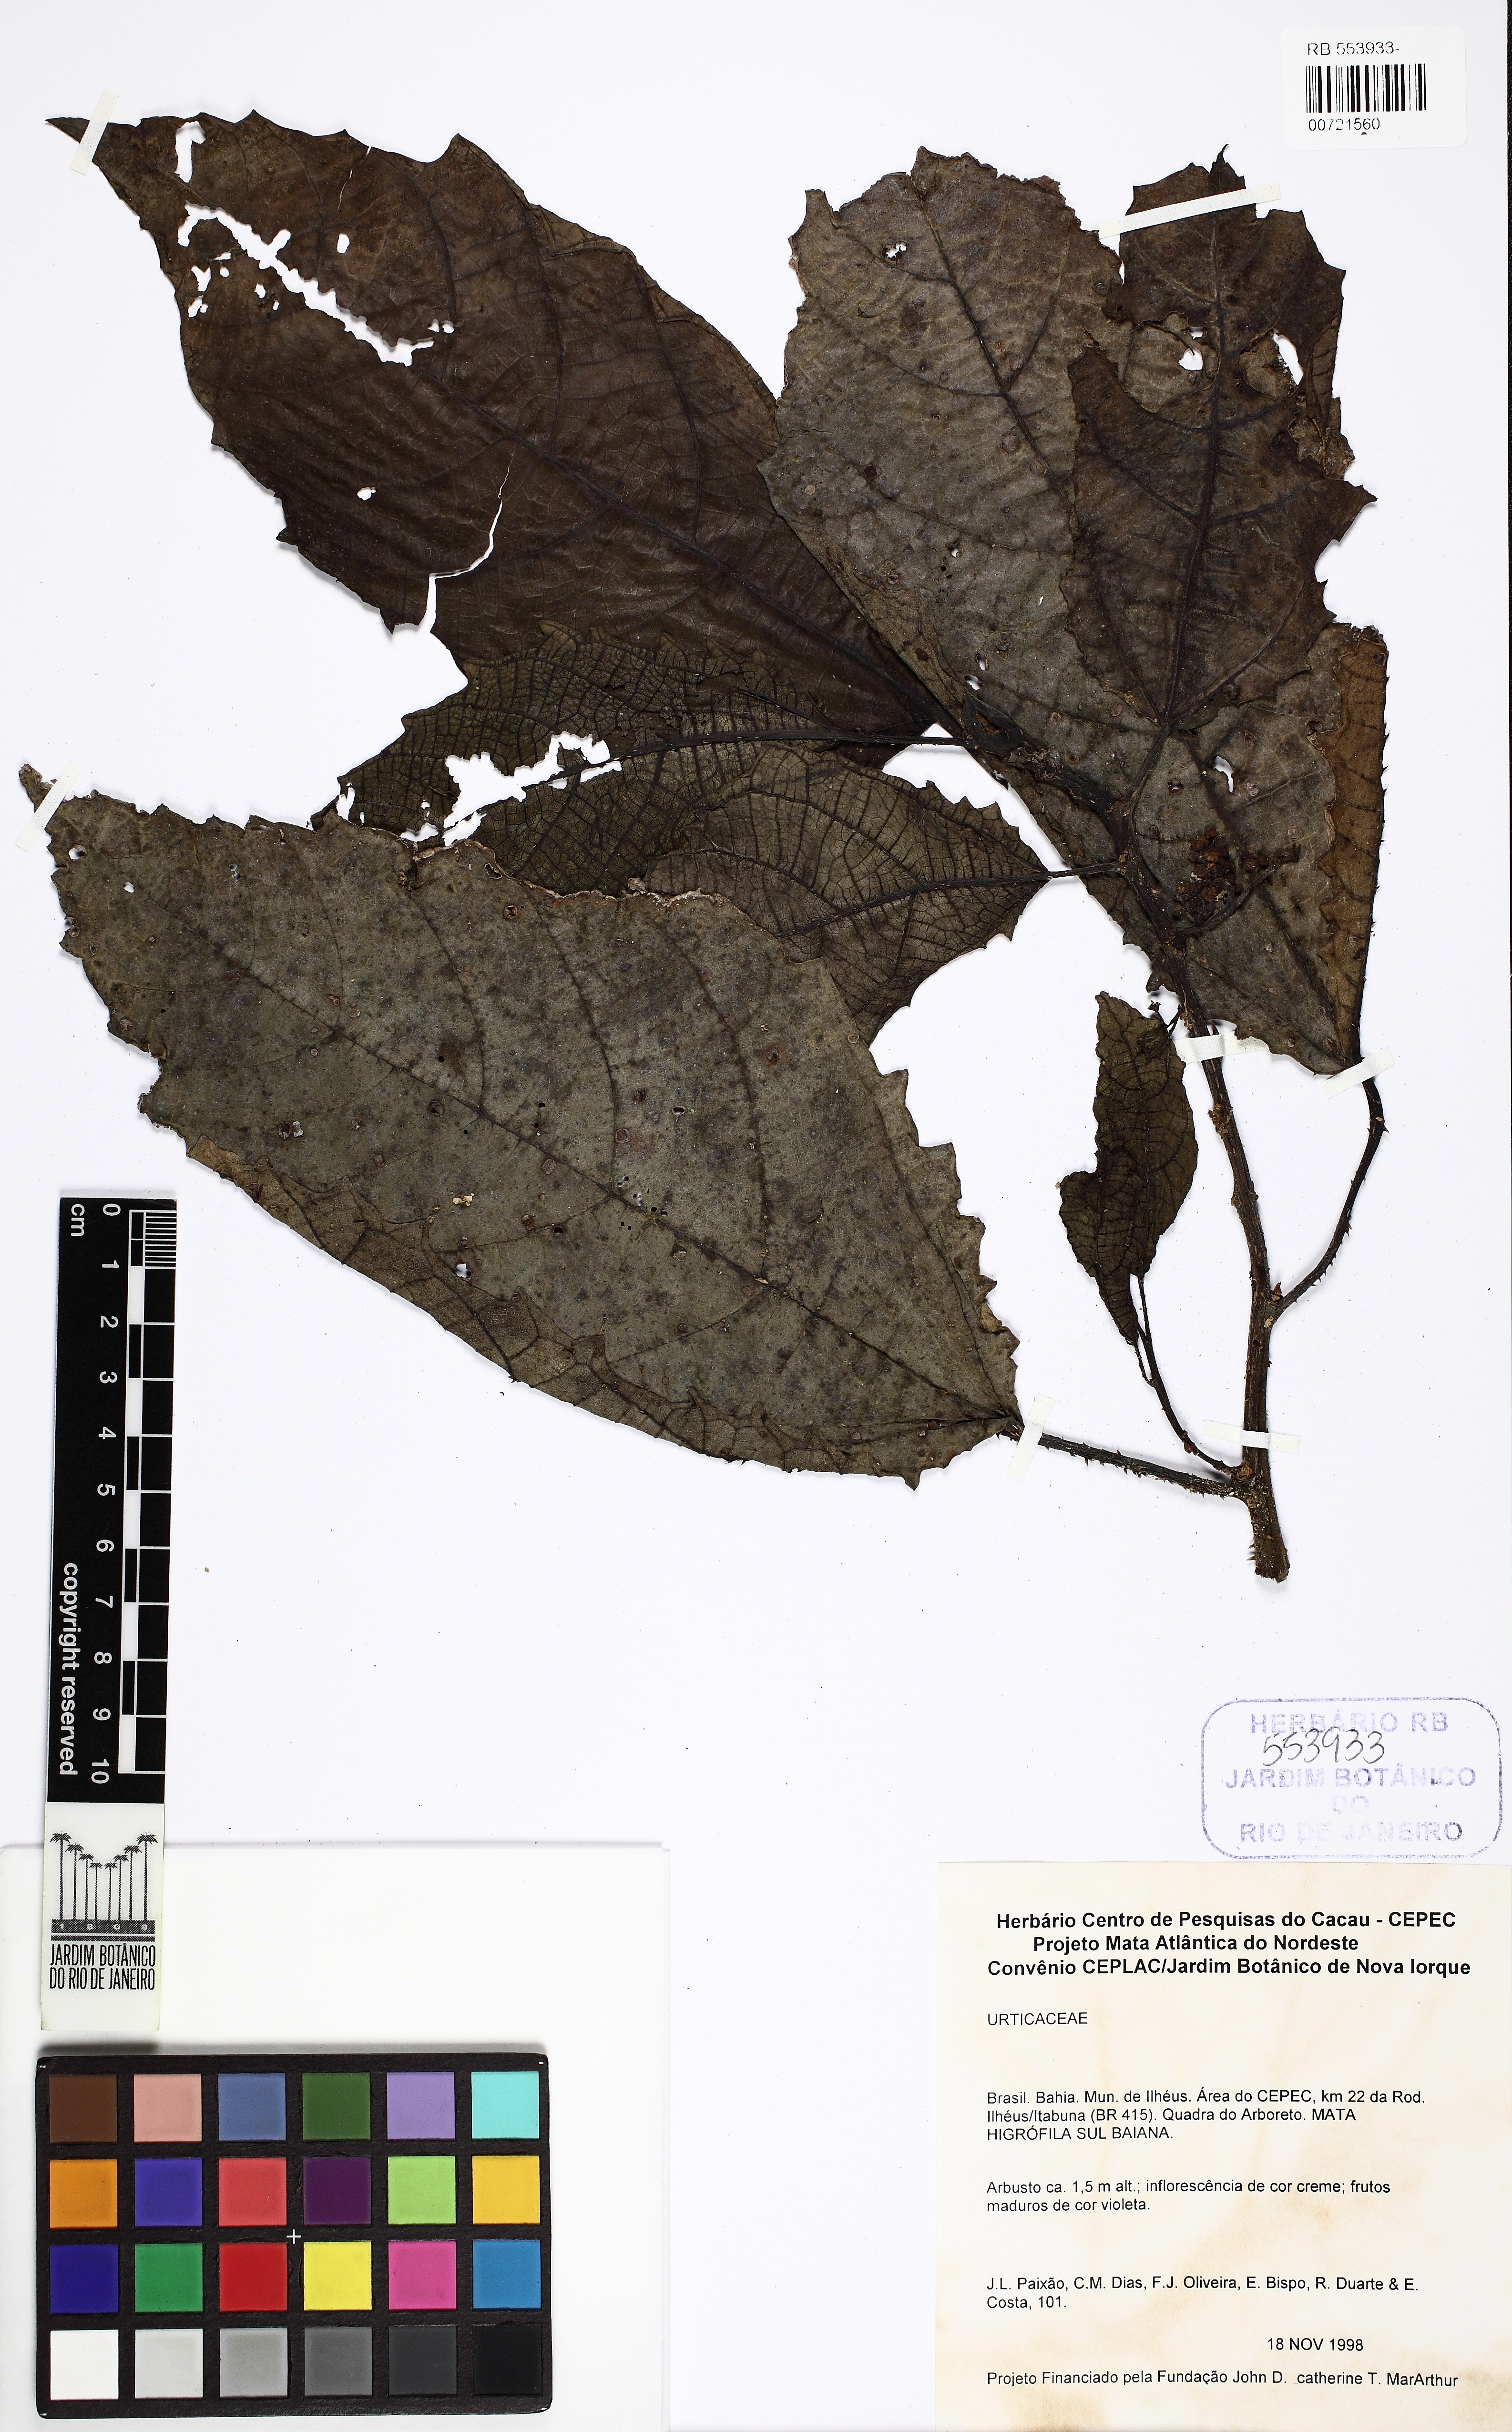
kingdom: Plantae
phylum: Tracheophyta
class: Magnoliopsida
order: Rosales
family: Urticaceae
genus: Urera
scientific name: Urera baccifera
